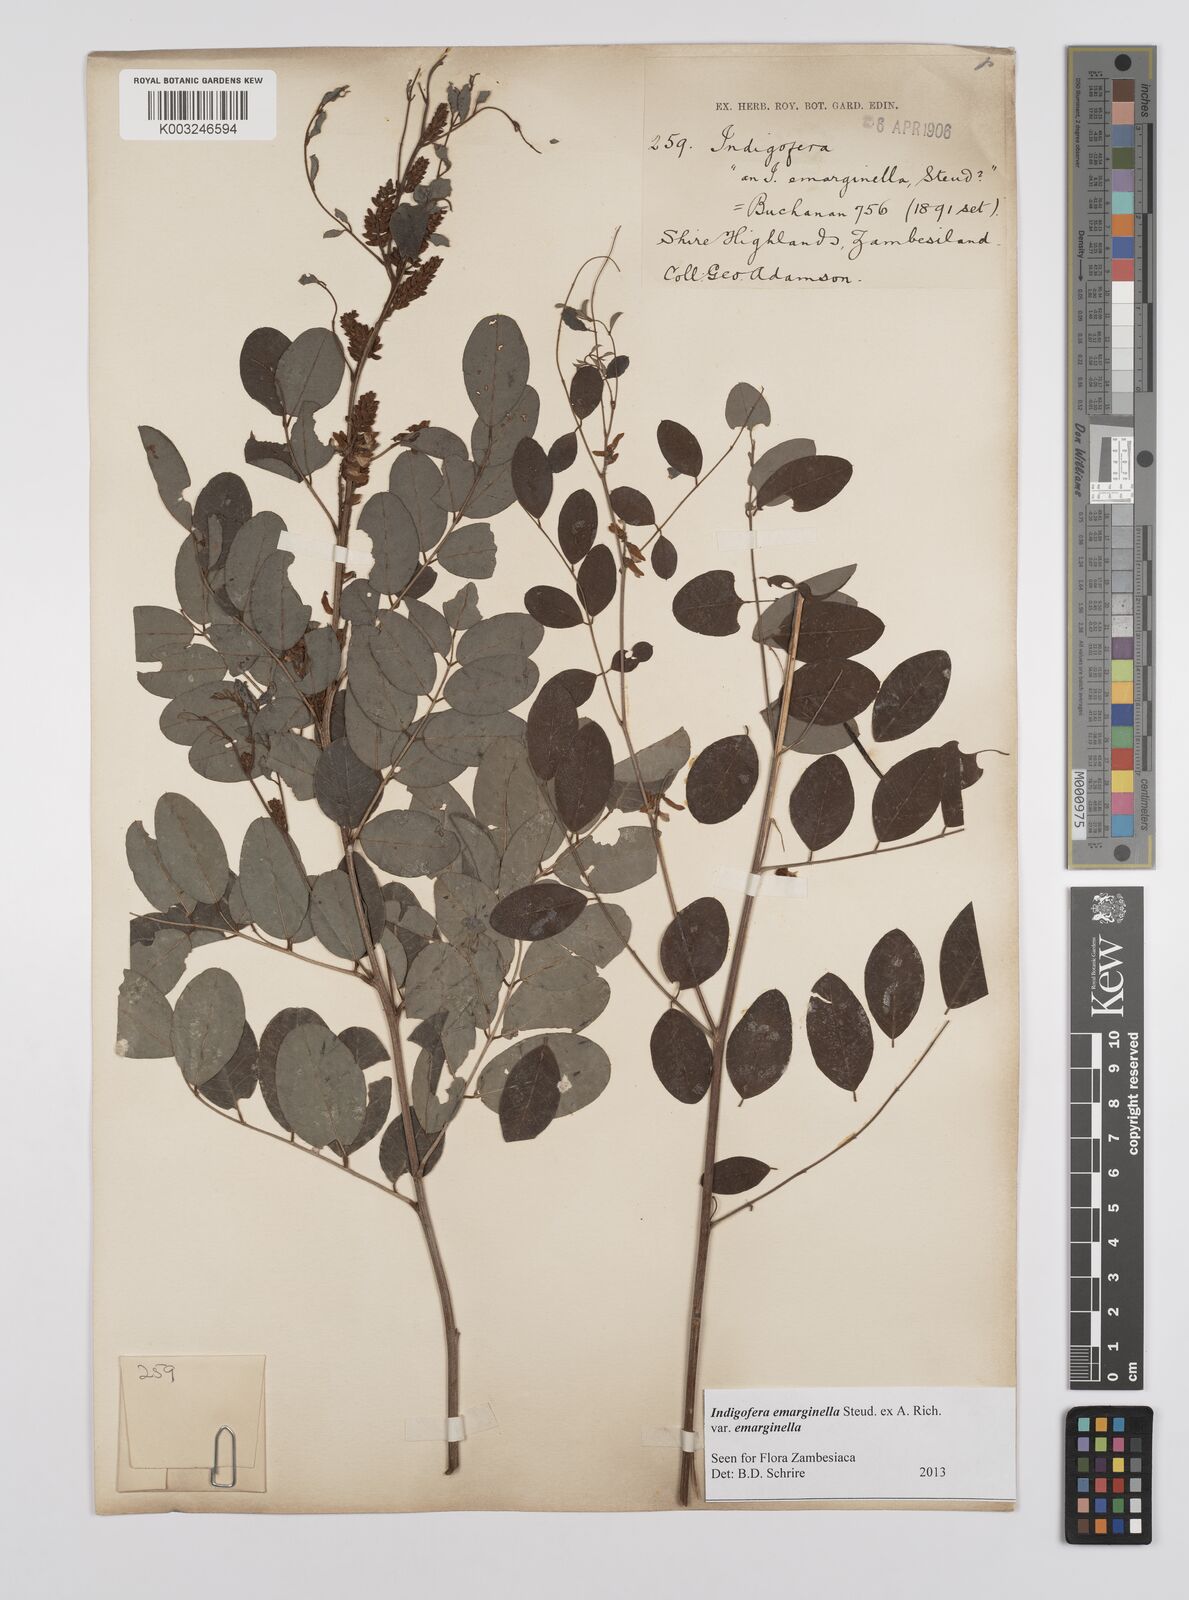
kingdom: Plantae
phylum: Tracheophyta
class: Magnoliopsida
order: Fabales
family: Fabaceae
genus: Indigofera
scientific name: Indigofera emarginella
